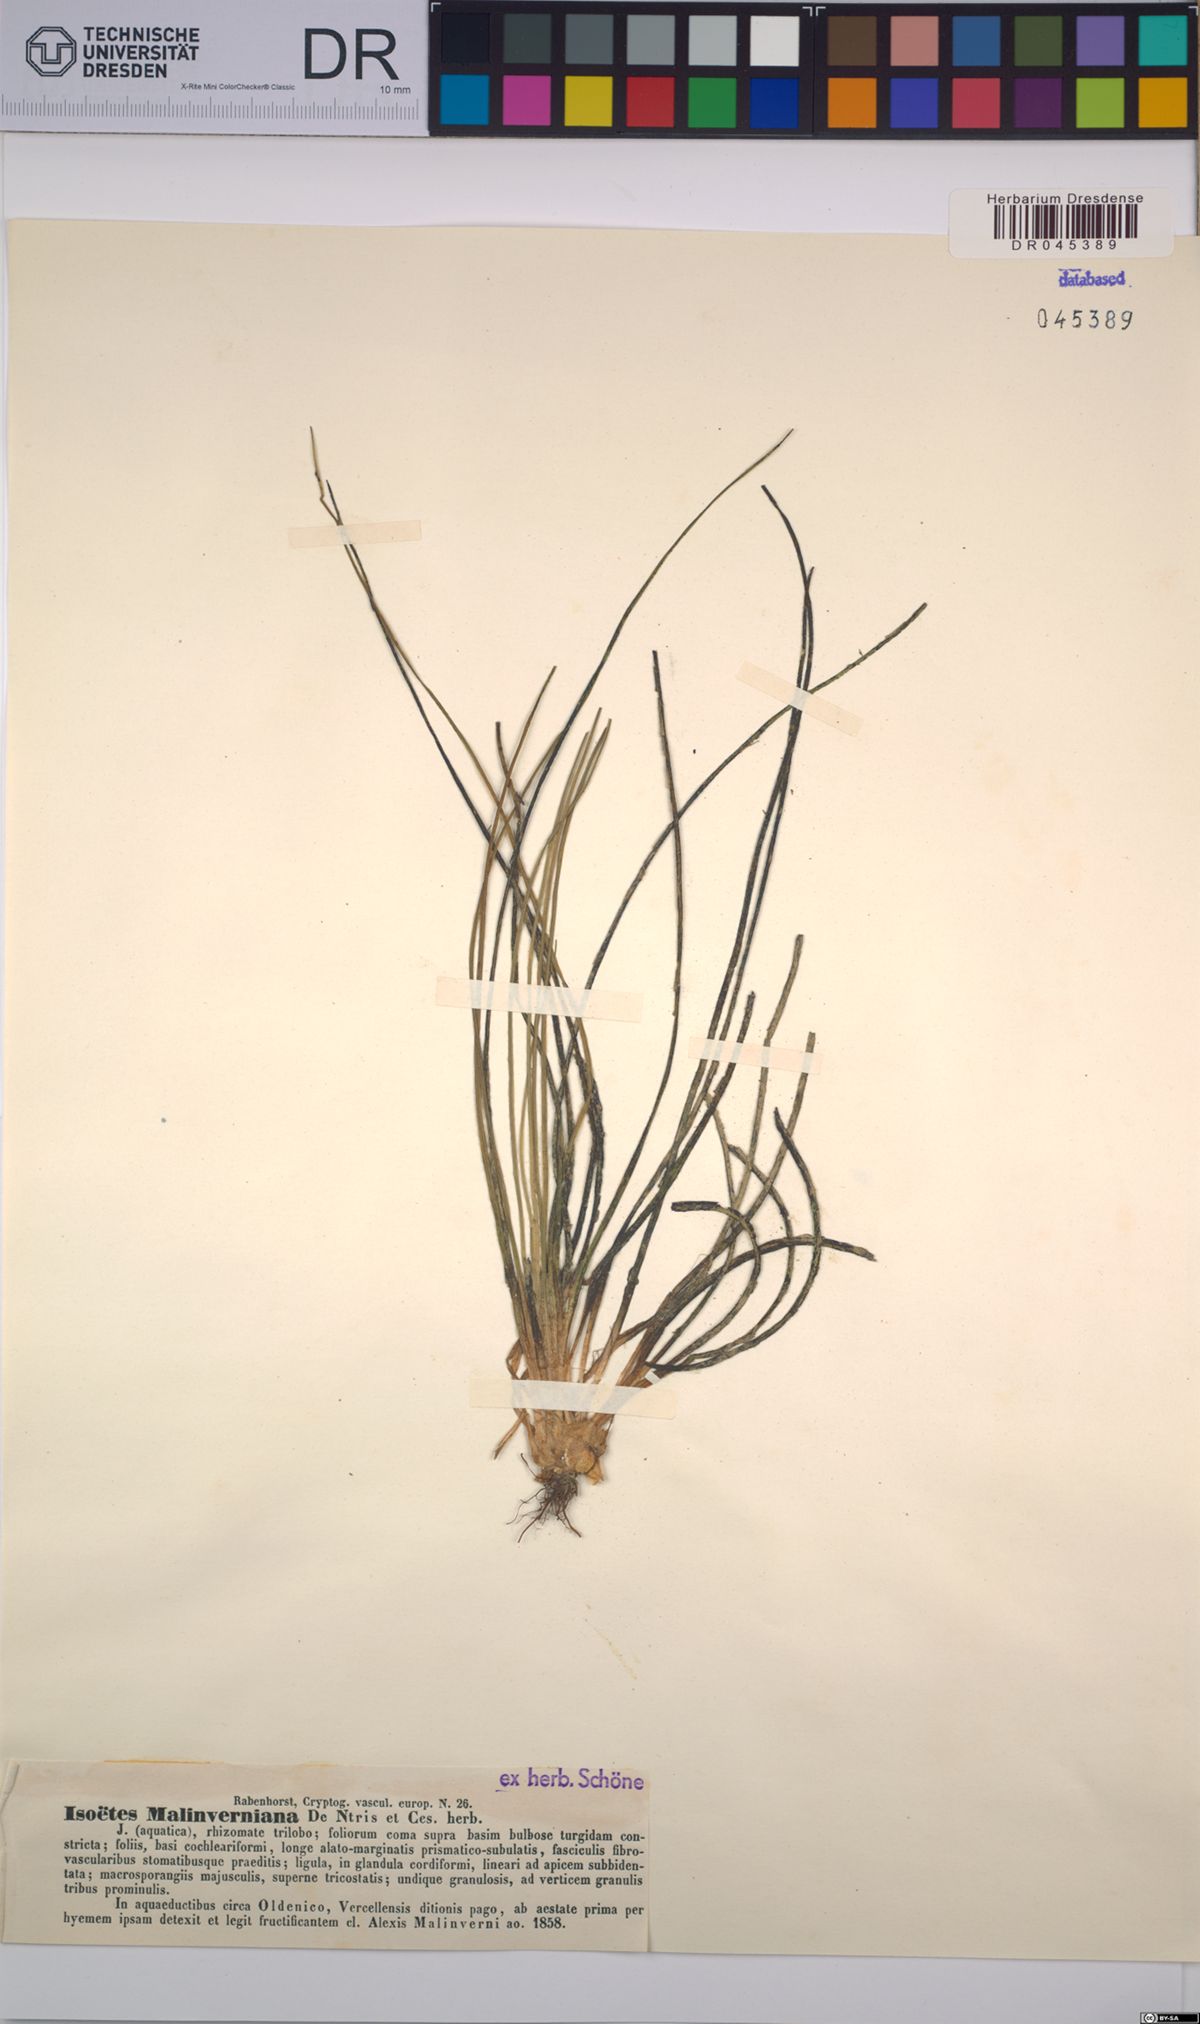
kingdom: Plantae
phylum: Tracheophyta
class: Lycopodiopsida
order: Isoetales
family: Isoetaceae
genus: Isoetes
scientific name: Isoetes malinverniana
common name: Piedmont quillwort
